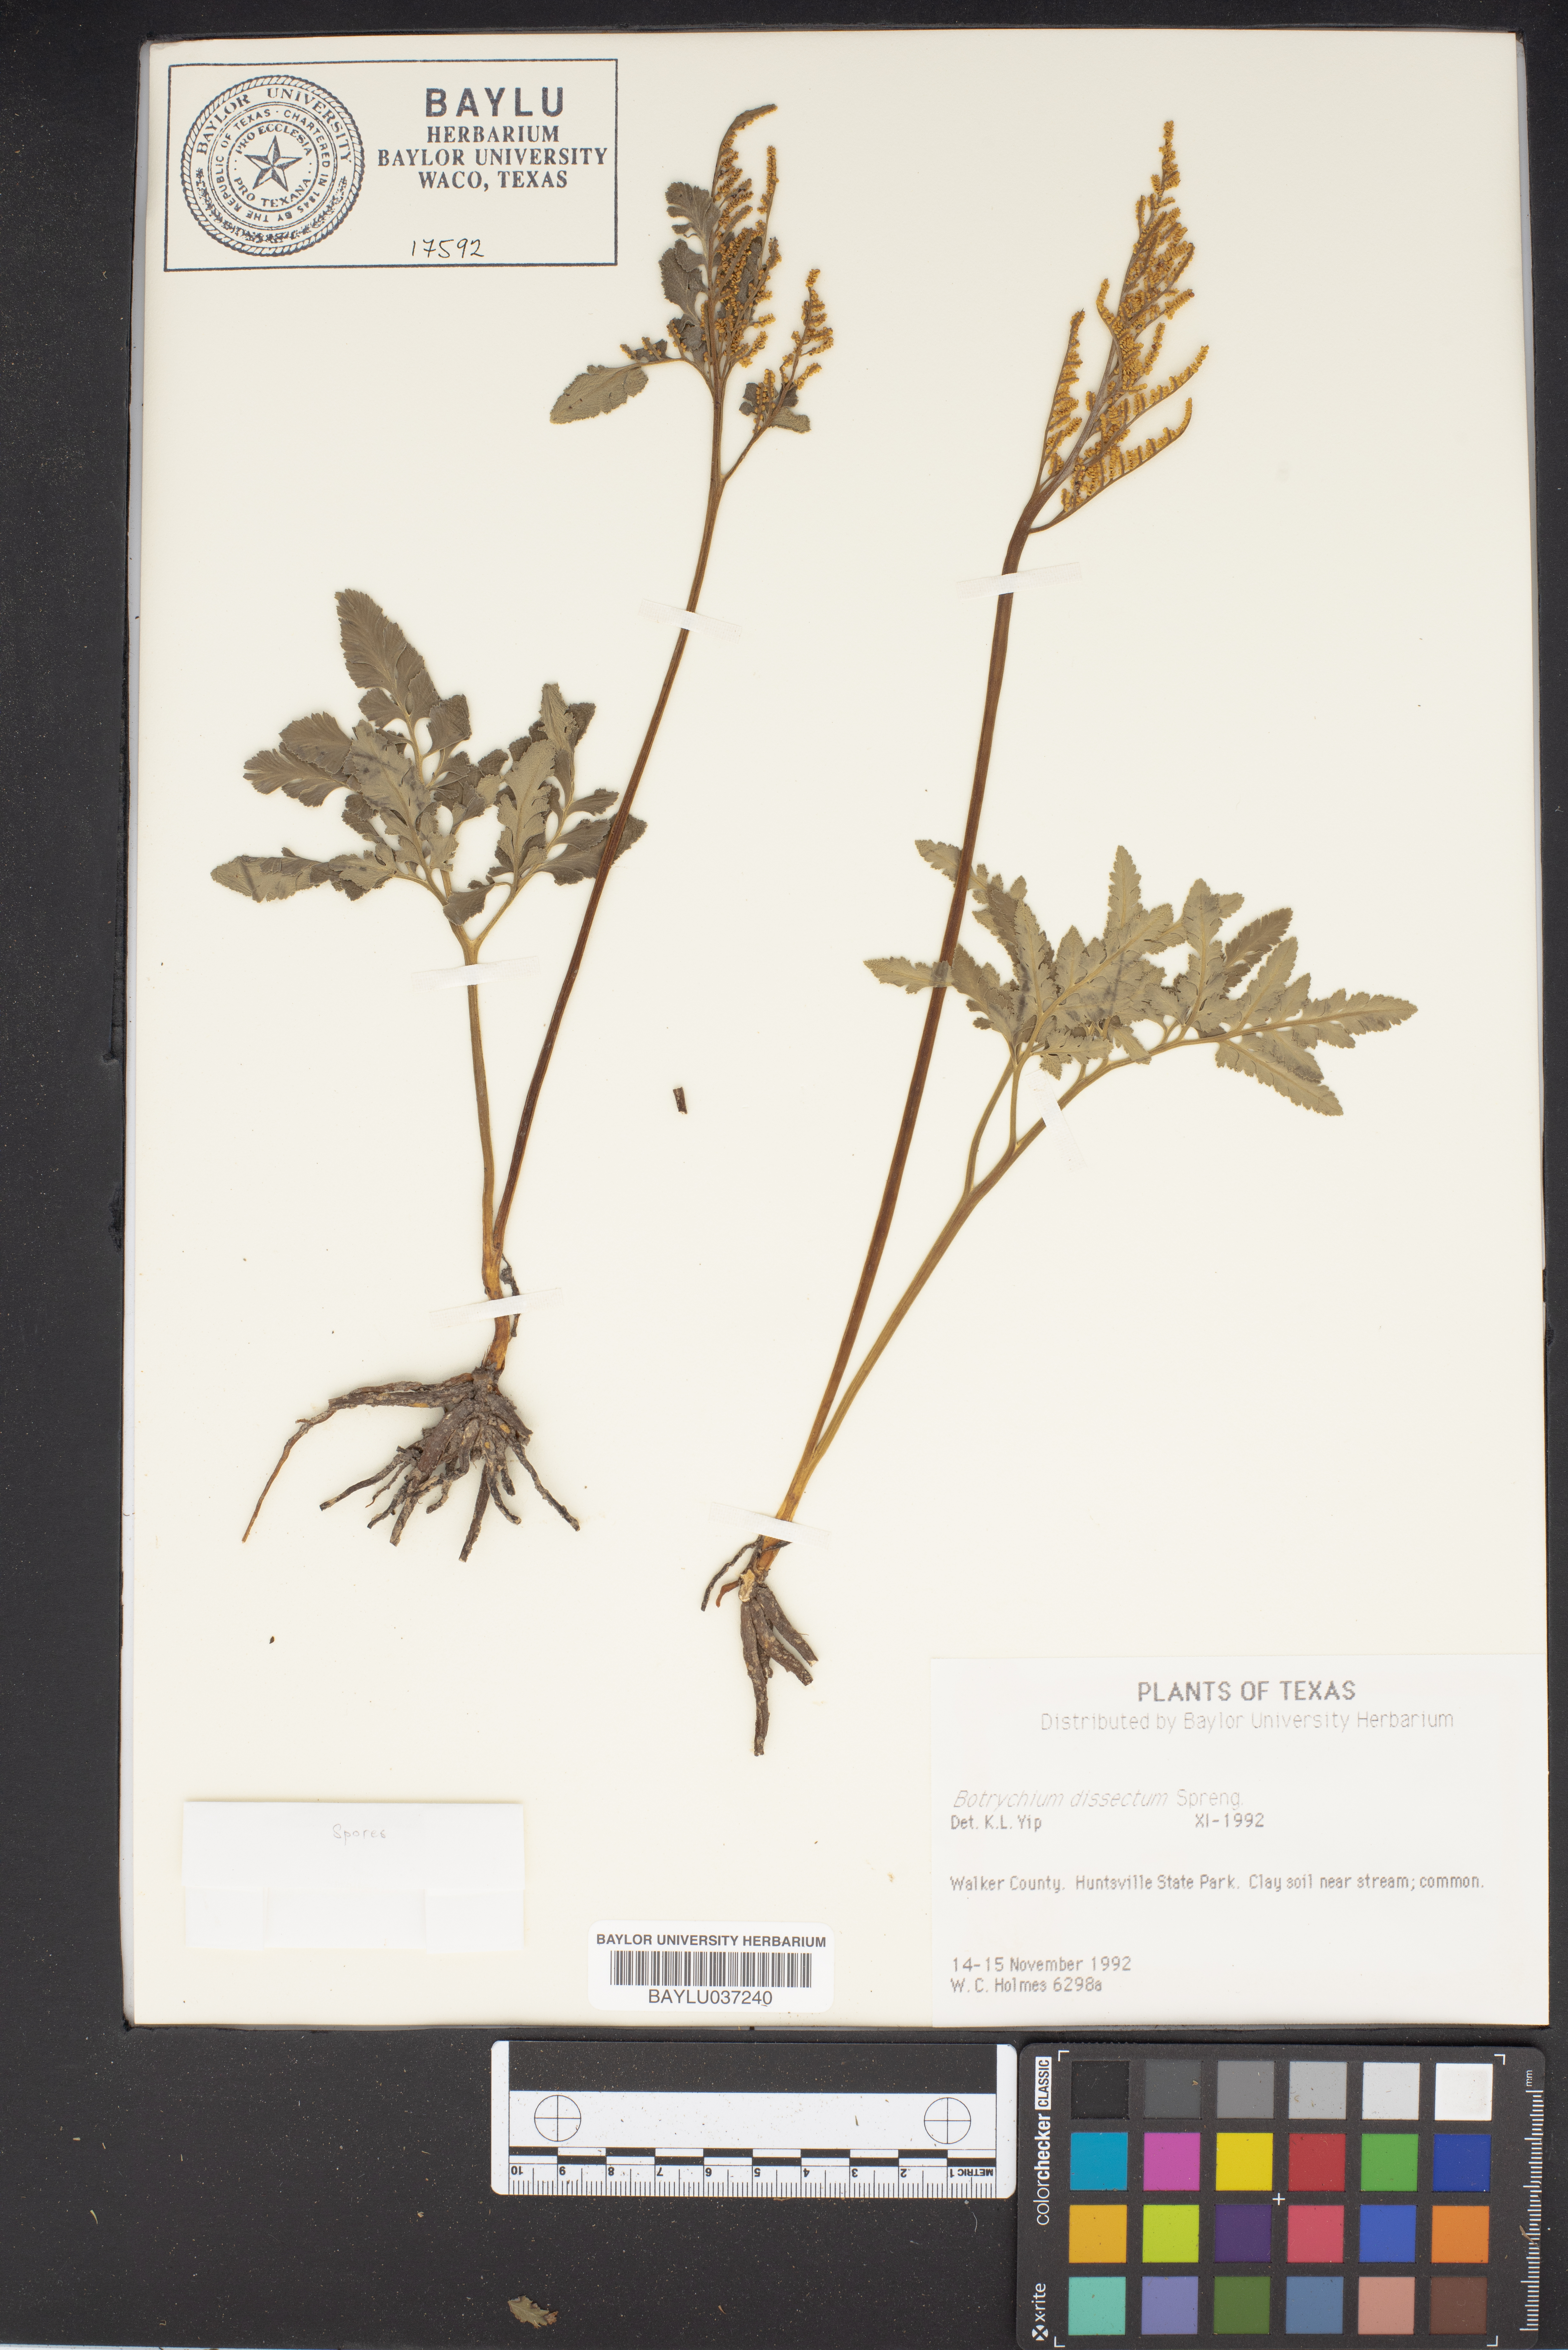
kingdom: Plantae
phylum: Tracheophyta
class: Polypodiopsida
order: Ophioglossales
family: Ophioglossaceae
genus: Sceptridium
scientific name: Sceptridium dissectum
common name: Cut-leaved grapefern
